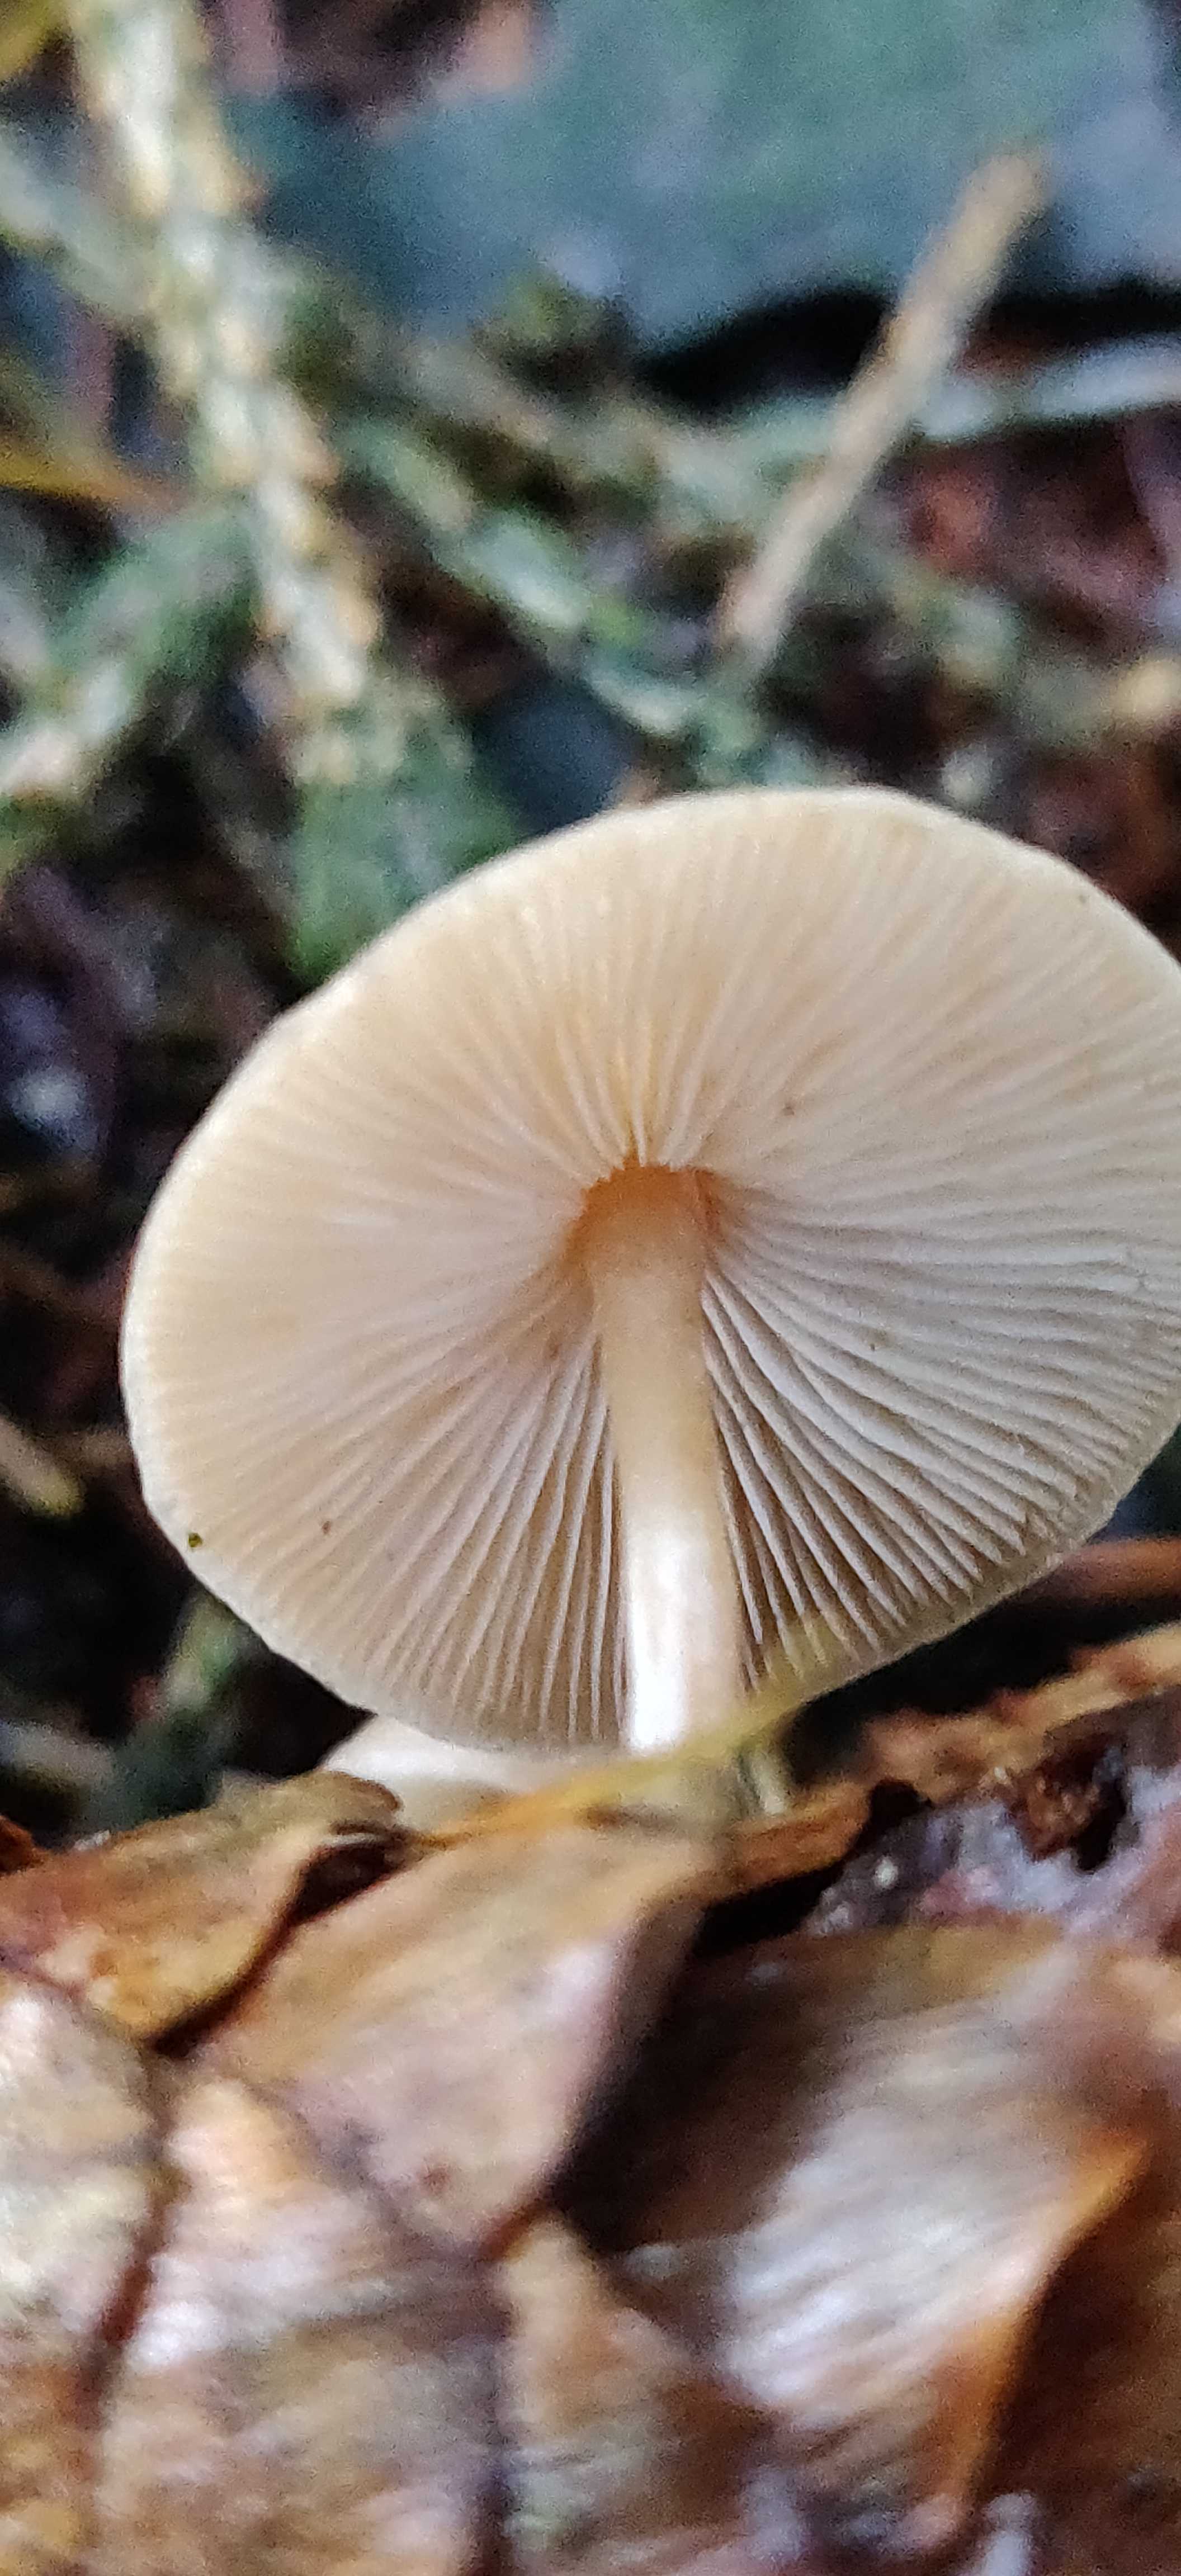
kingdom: Fungi
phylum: Basidiomycota
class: Agaricomycetes
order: Agaricales
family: Marasmiaceae
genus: Baeospora
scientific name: Baeospora myosura
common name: koglebruskhat
